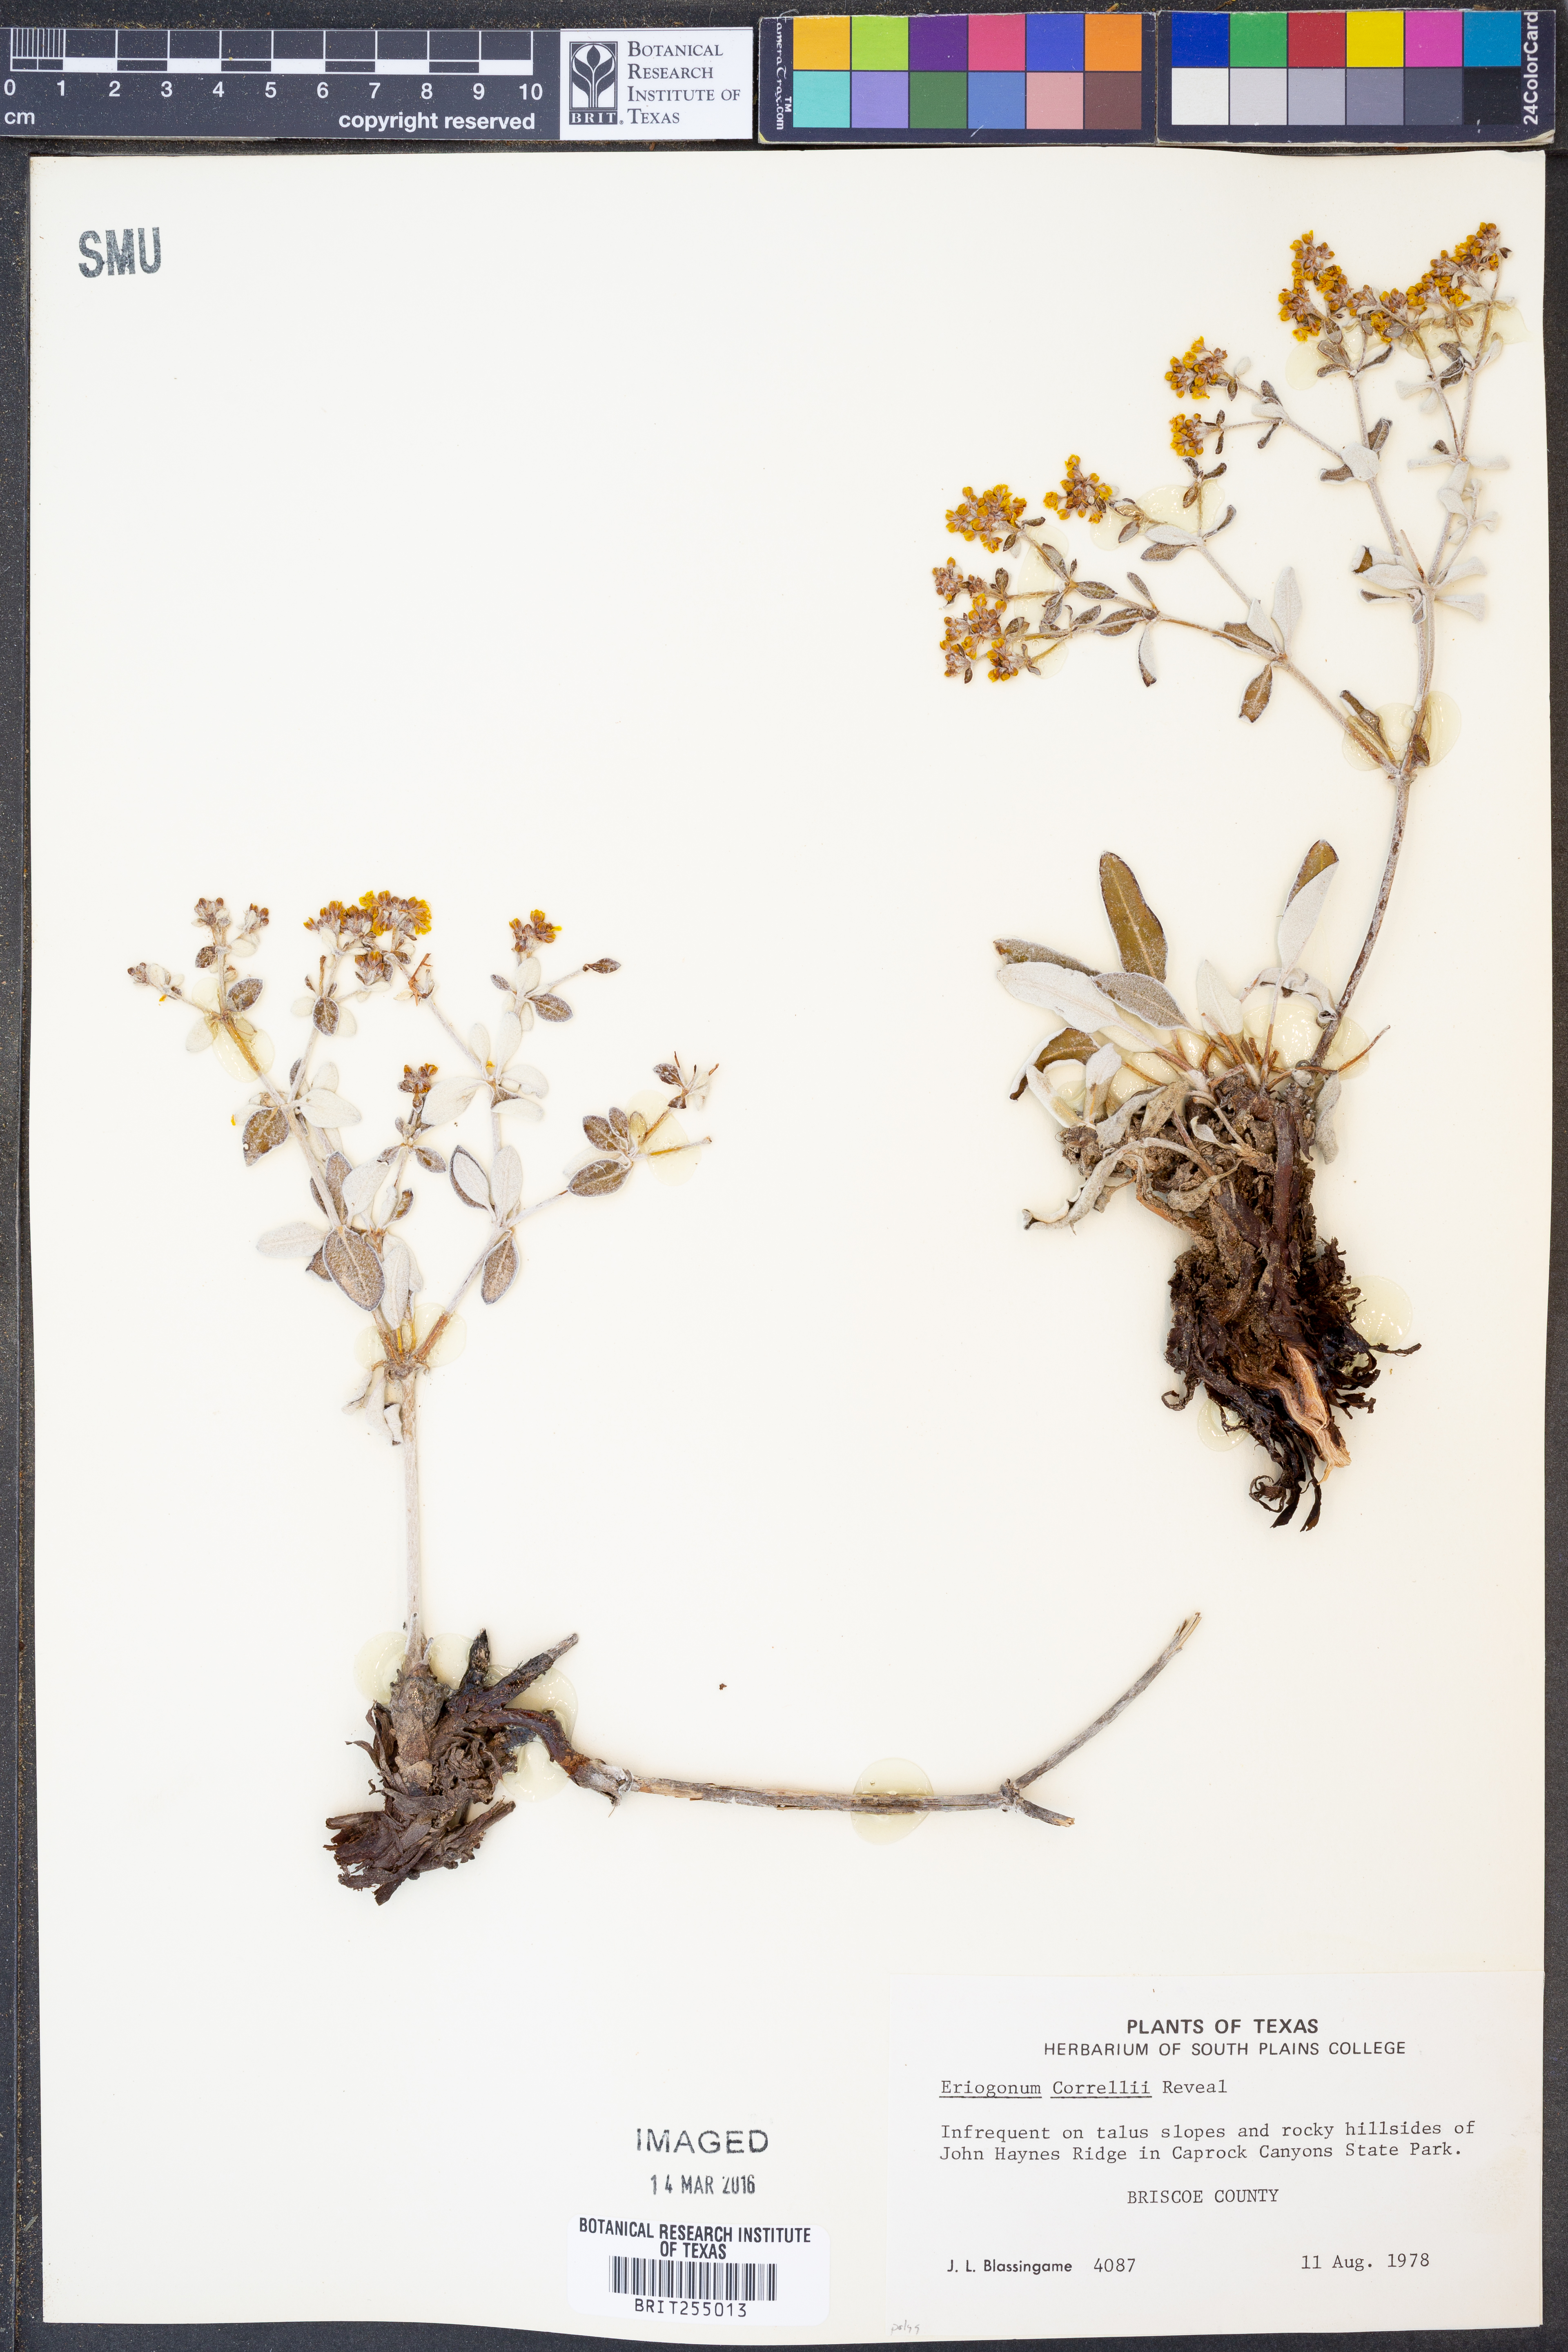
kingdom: Plantae
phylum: Tracheophyta
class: Magnoliopsida
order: Caryophyllales
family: Polygonaceae
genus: Eriogonum
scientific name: Eriogonum correllii
